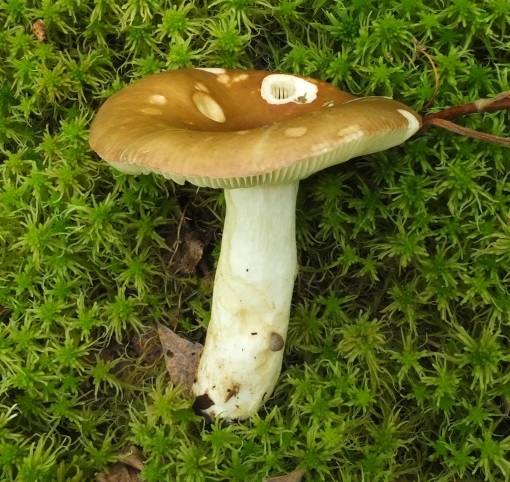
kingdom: Fungi
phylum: Basidiomycota
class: Agaricomycetes
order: Russulales
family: Russulaceae
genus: Russula
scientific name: Russula clavipes
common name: olivengrøn skørhat
